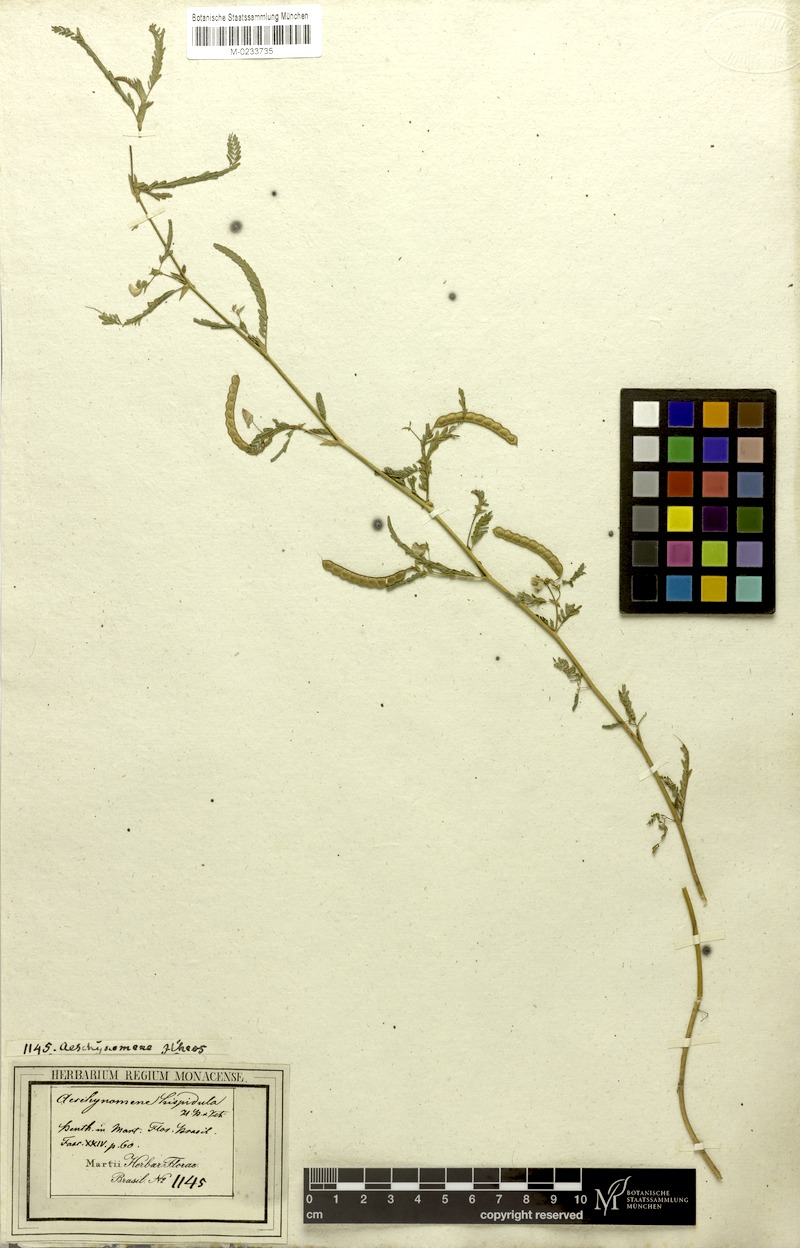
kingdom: Plantae
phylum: Tracheophyta
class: Magnoliopsida
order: Fabales
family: Fabaceae
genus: Aeschynomene
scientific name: Aeschynomene evenia
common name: Shrubby jointvetch
